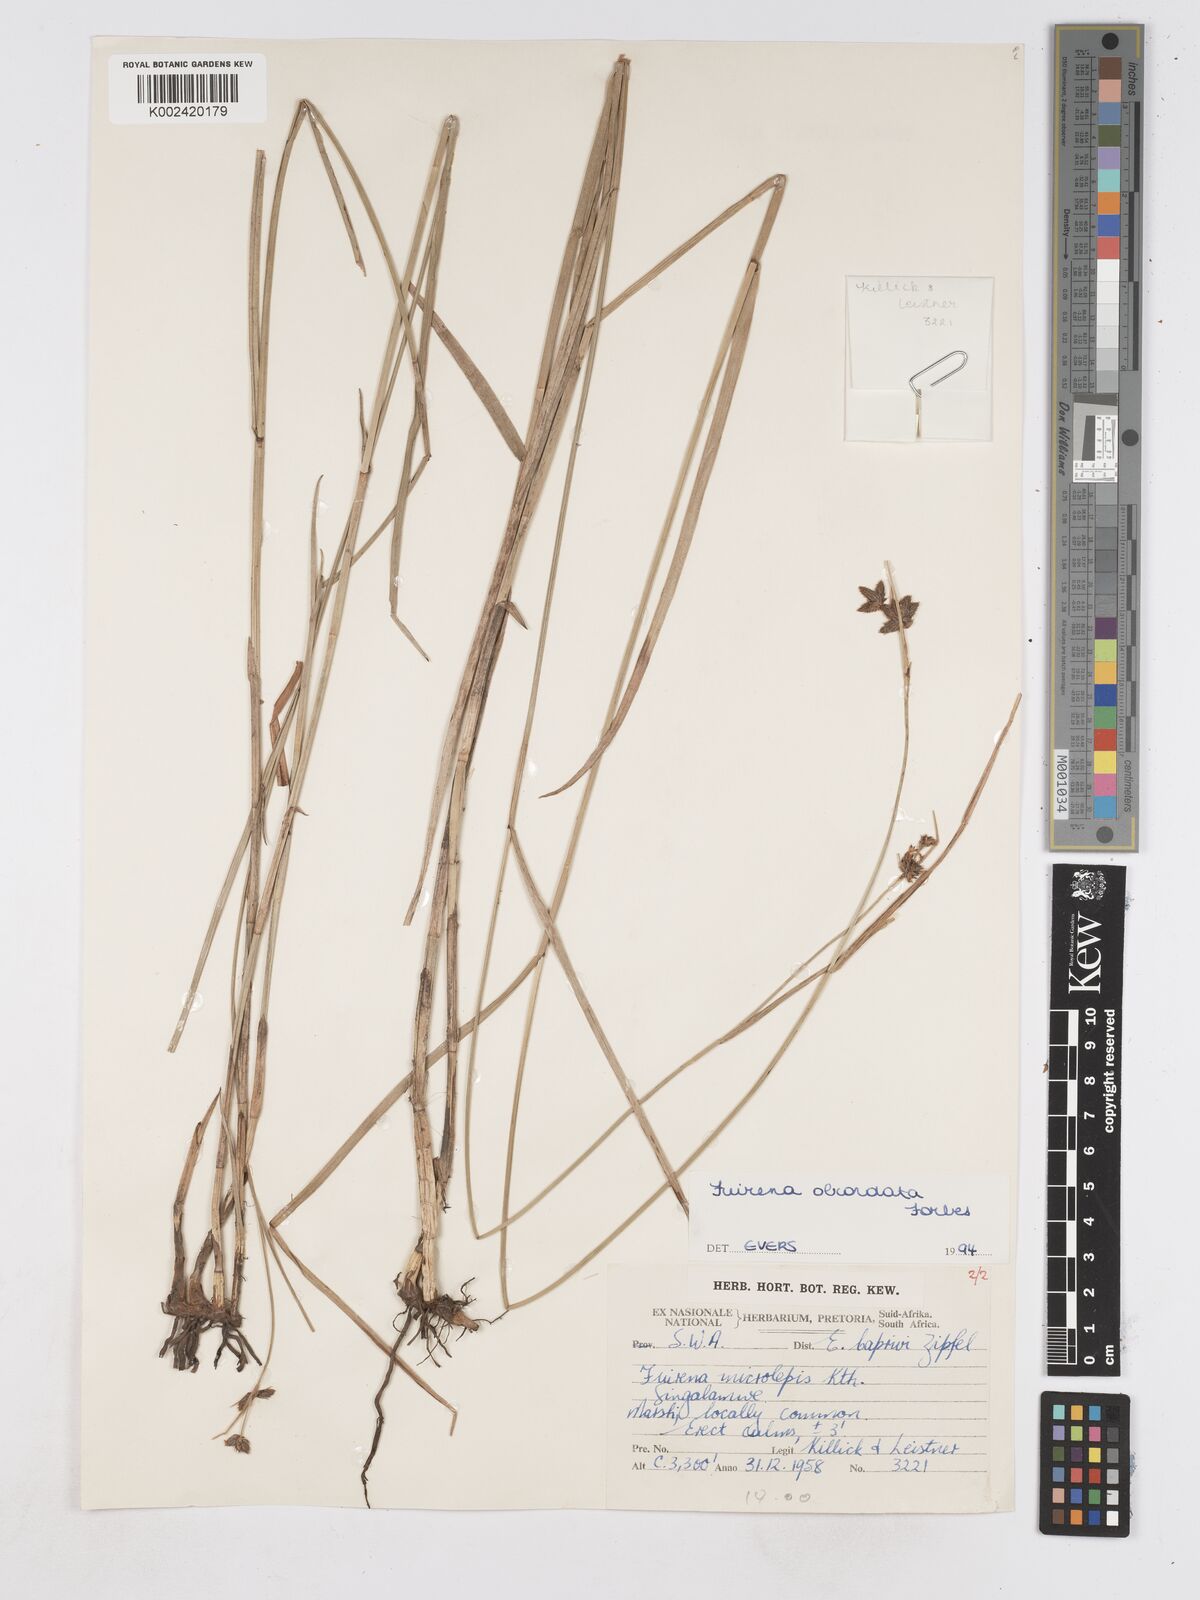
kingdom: Plantae
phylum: Tracheophyta
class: Liliopsida
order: Poales
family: Cyperaceae
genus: Fuirena
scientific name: Fuirena obcordata
